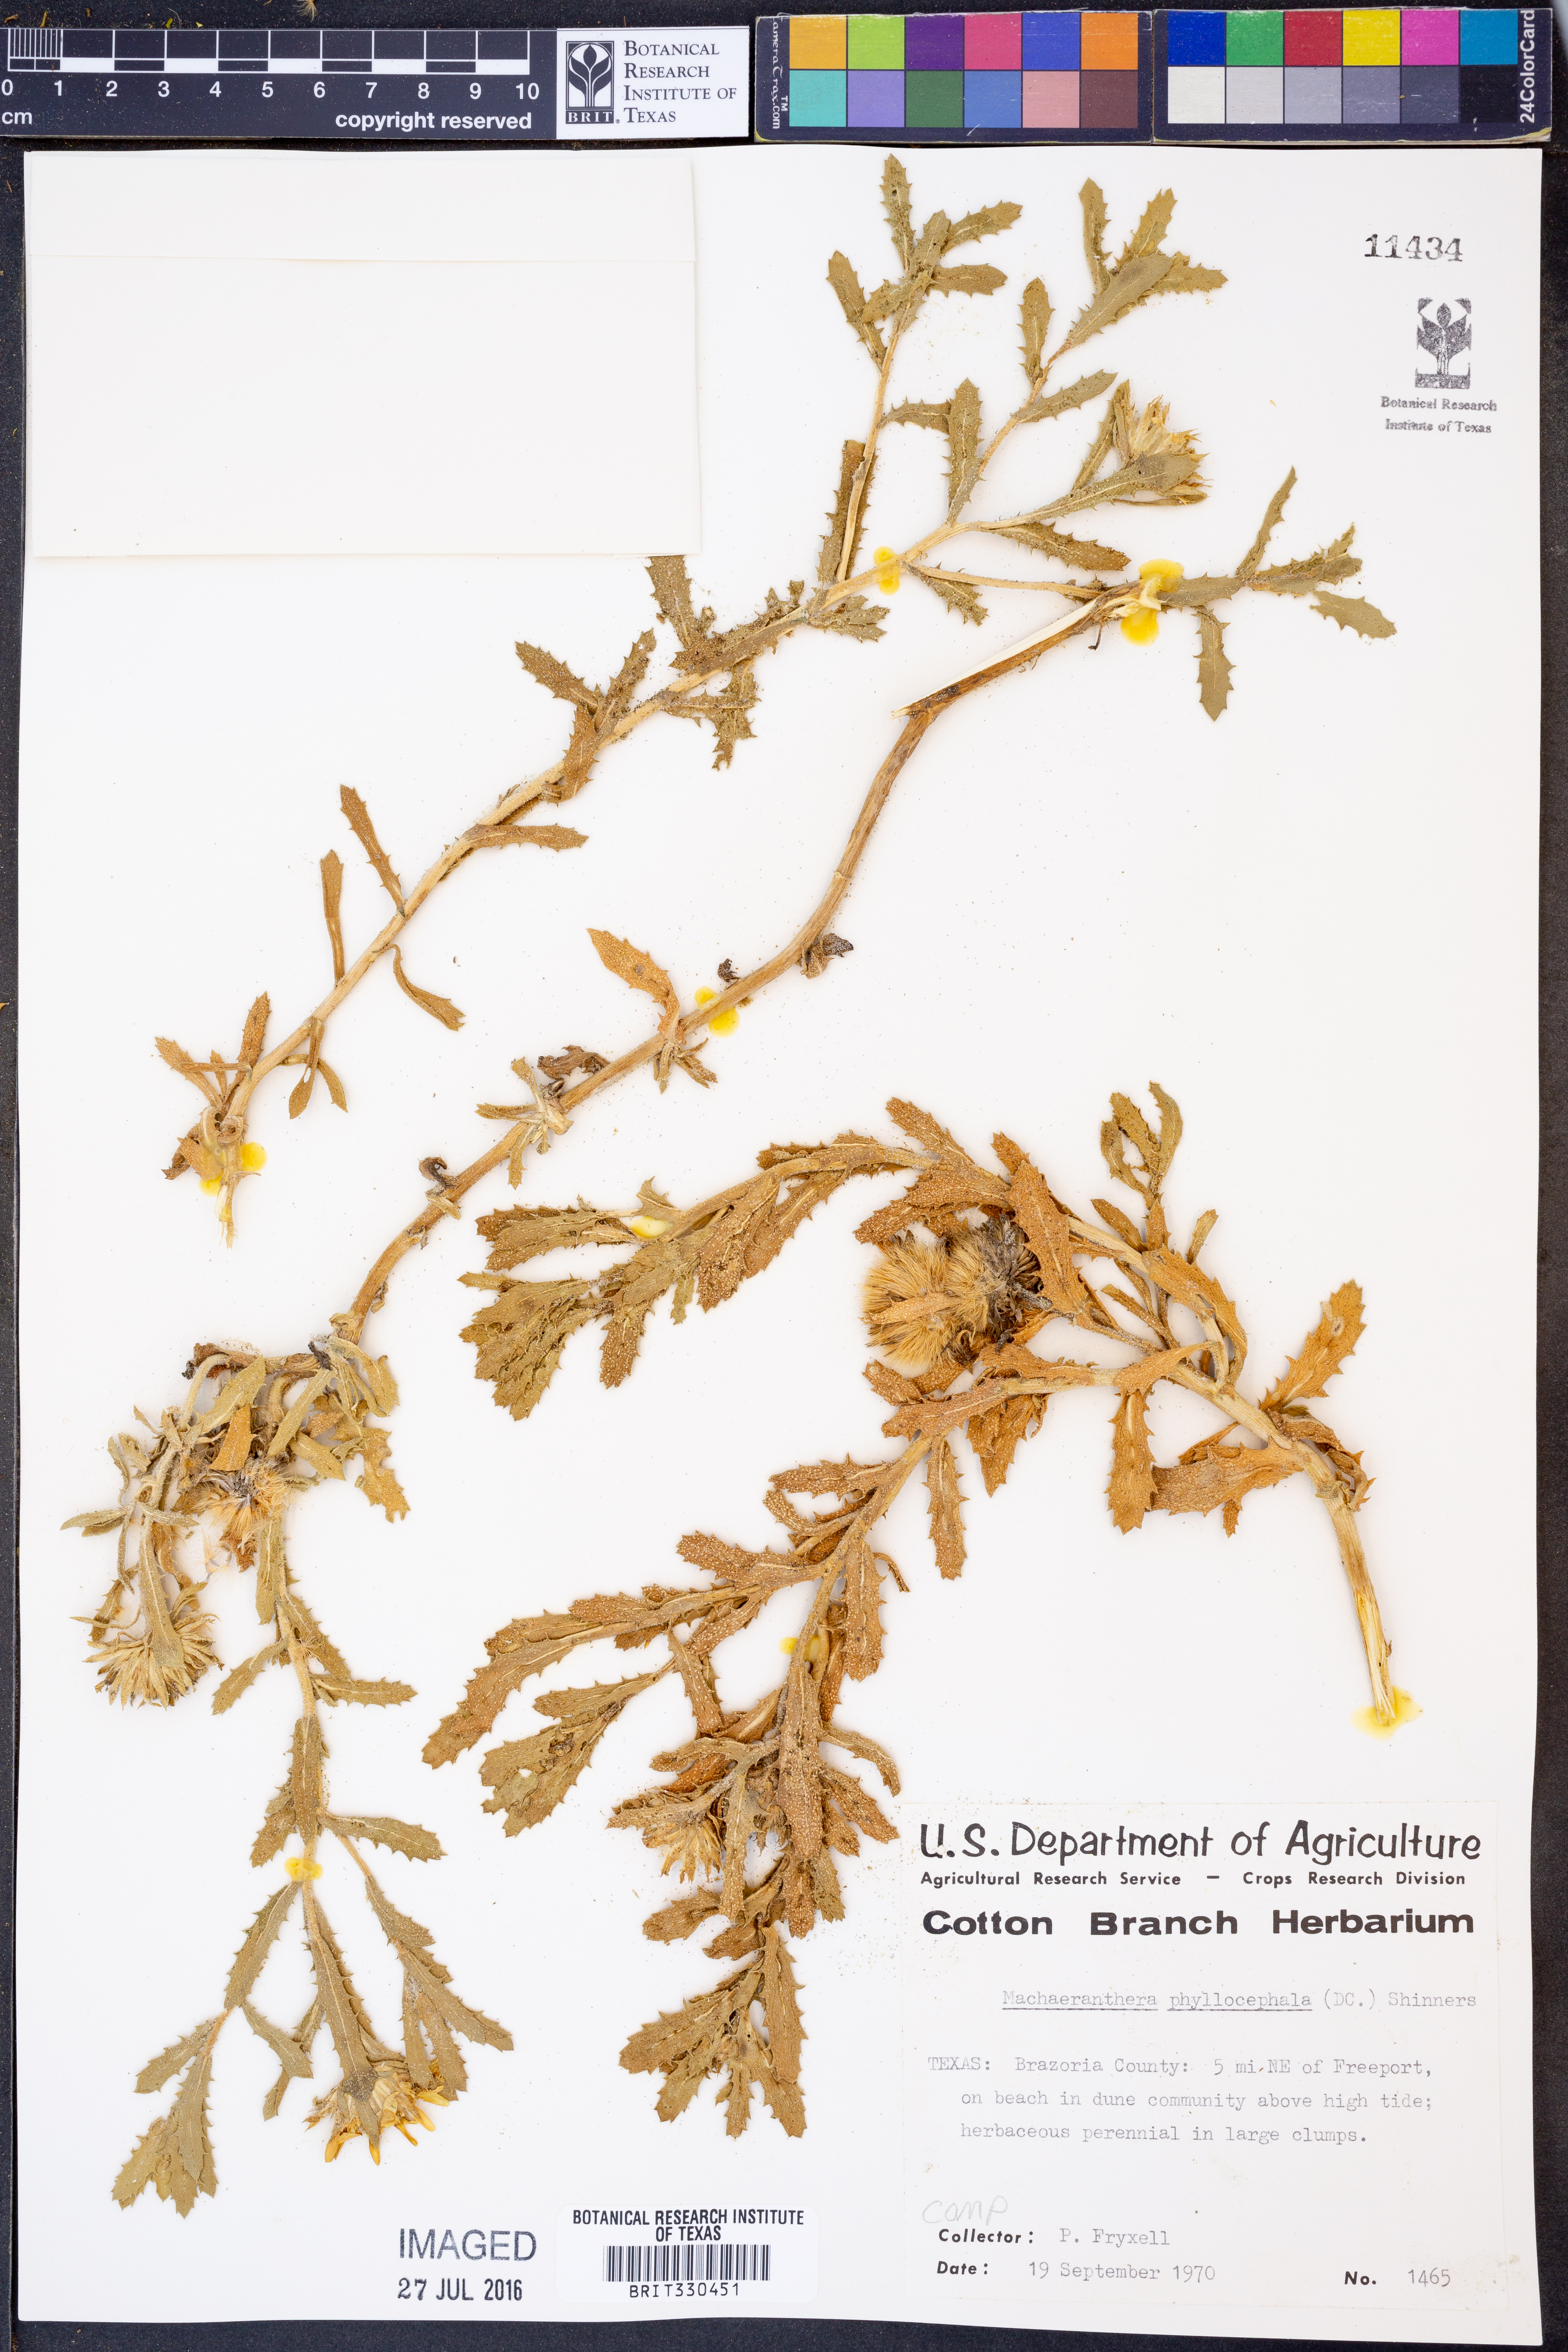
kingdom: Plantae
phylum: Tracheophyta
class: Magnoliopsida
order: Asterales
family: Asteraceae
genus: Rayjacksonia
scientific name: Rayjacksonia phyllocephala
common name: Gulf coast camphor daisy
